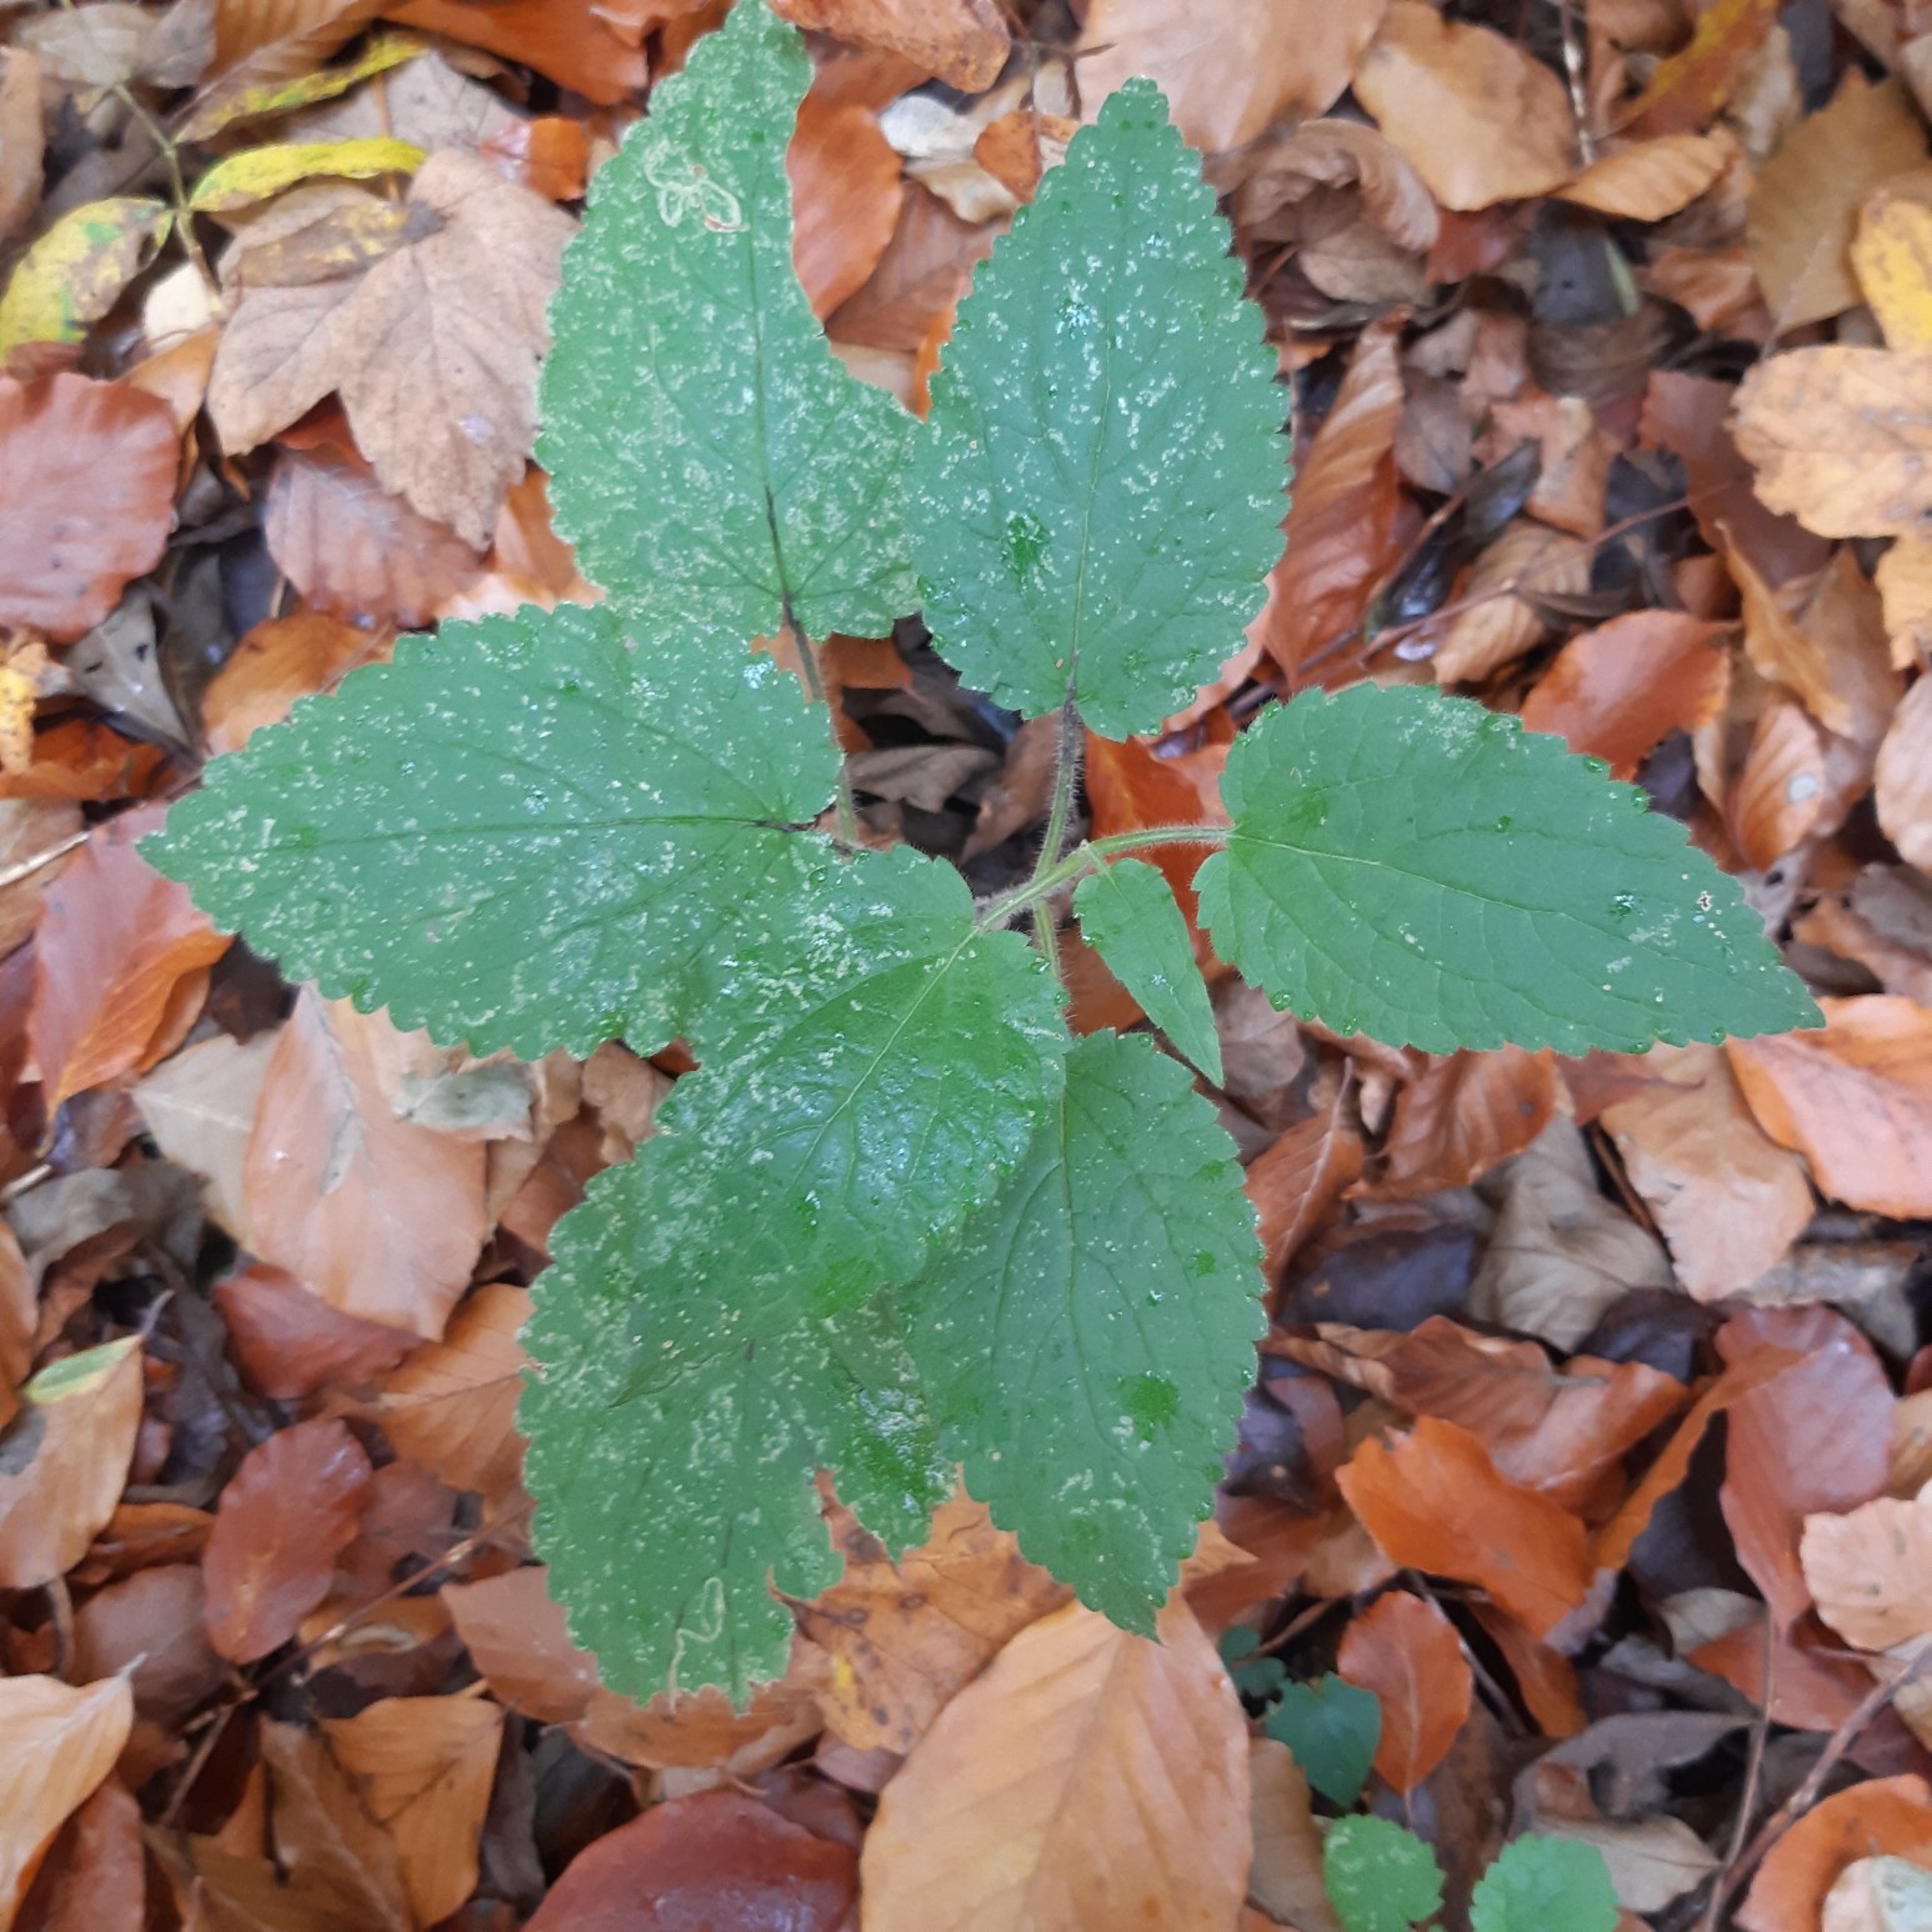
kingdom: Plantae
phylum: Tracheophyta
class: Magnoliopsida
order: Lamiales
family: Lamiaceae
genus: Stachys
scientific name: Stachys sylvatica
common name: Skov-galtetand
